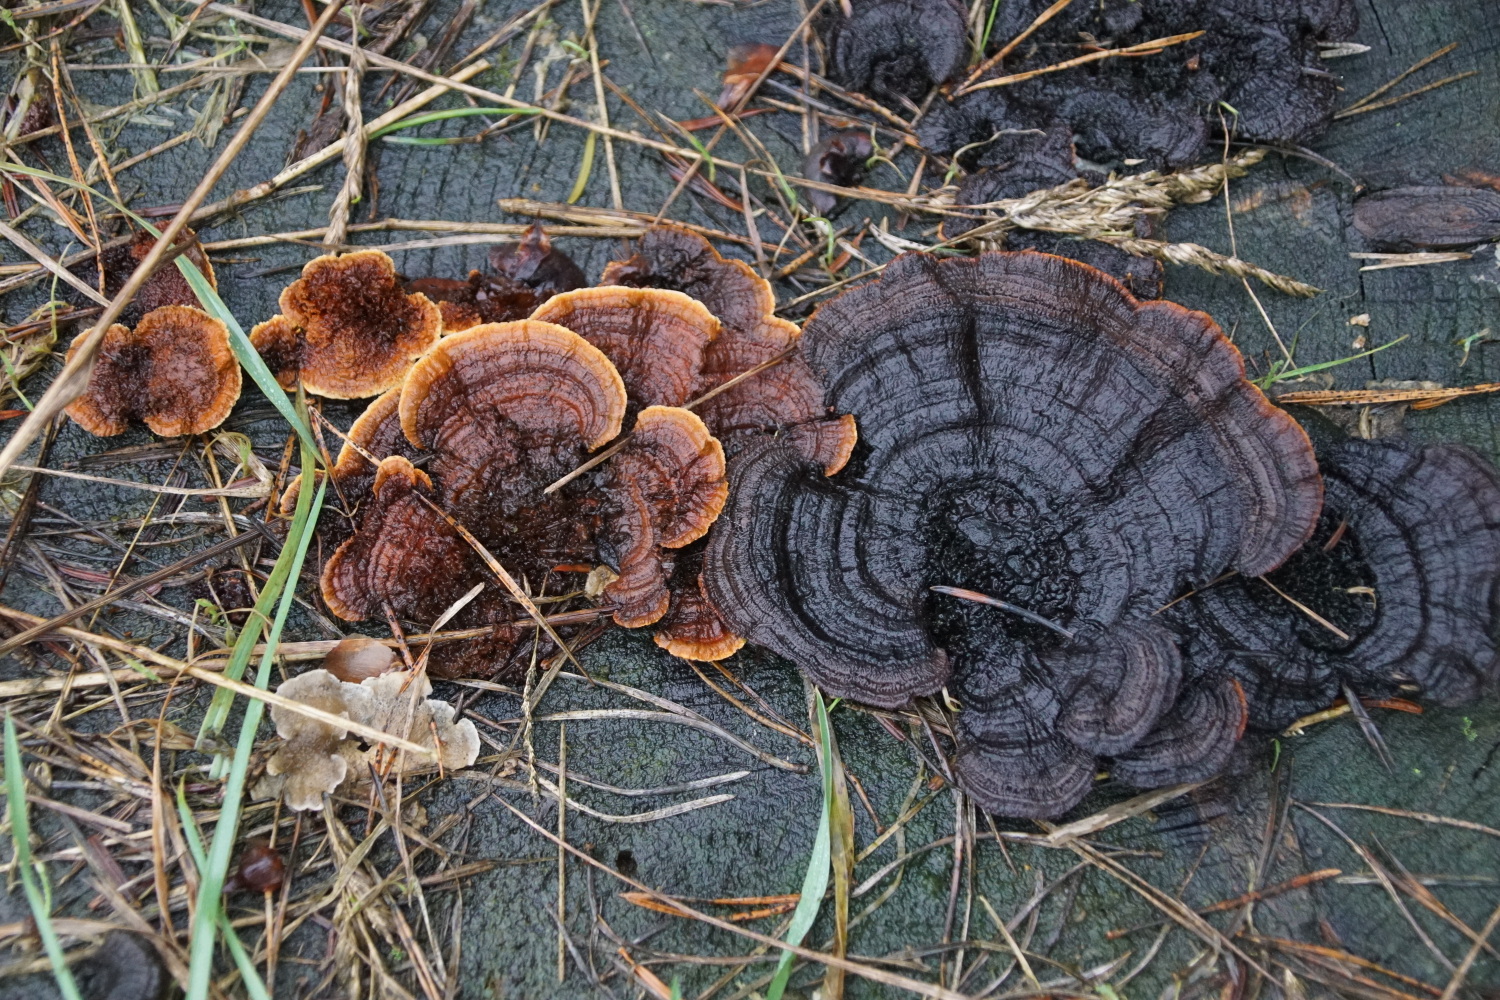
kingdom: Fungi
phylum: Basidiomycota
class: Agaricomycetes
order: Gloeophyllales
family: Gloeophyllaceae
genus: Gloeophyllum
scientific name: Gloeophyllum sepiarium
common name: fyrre-korkhat
